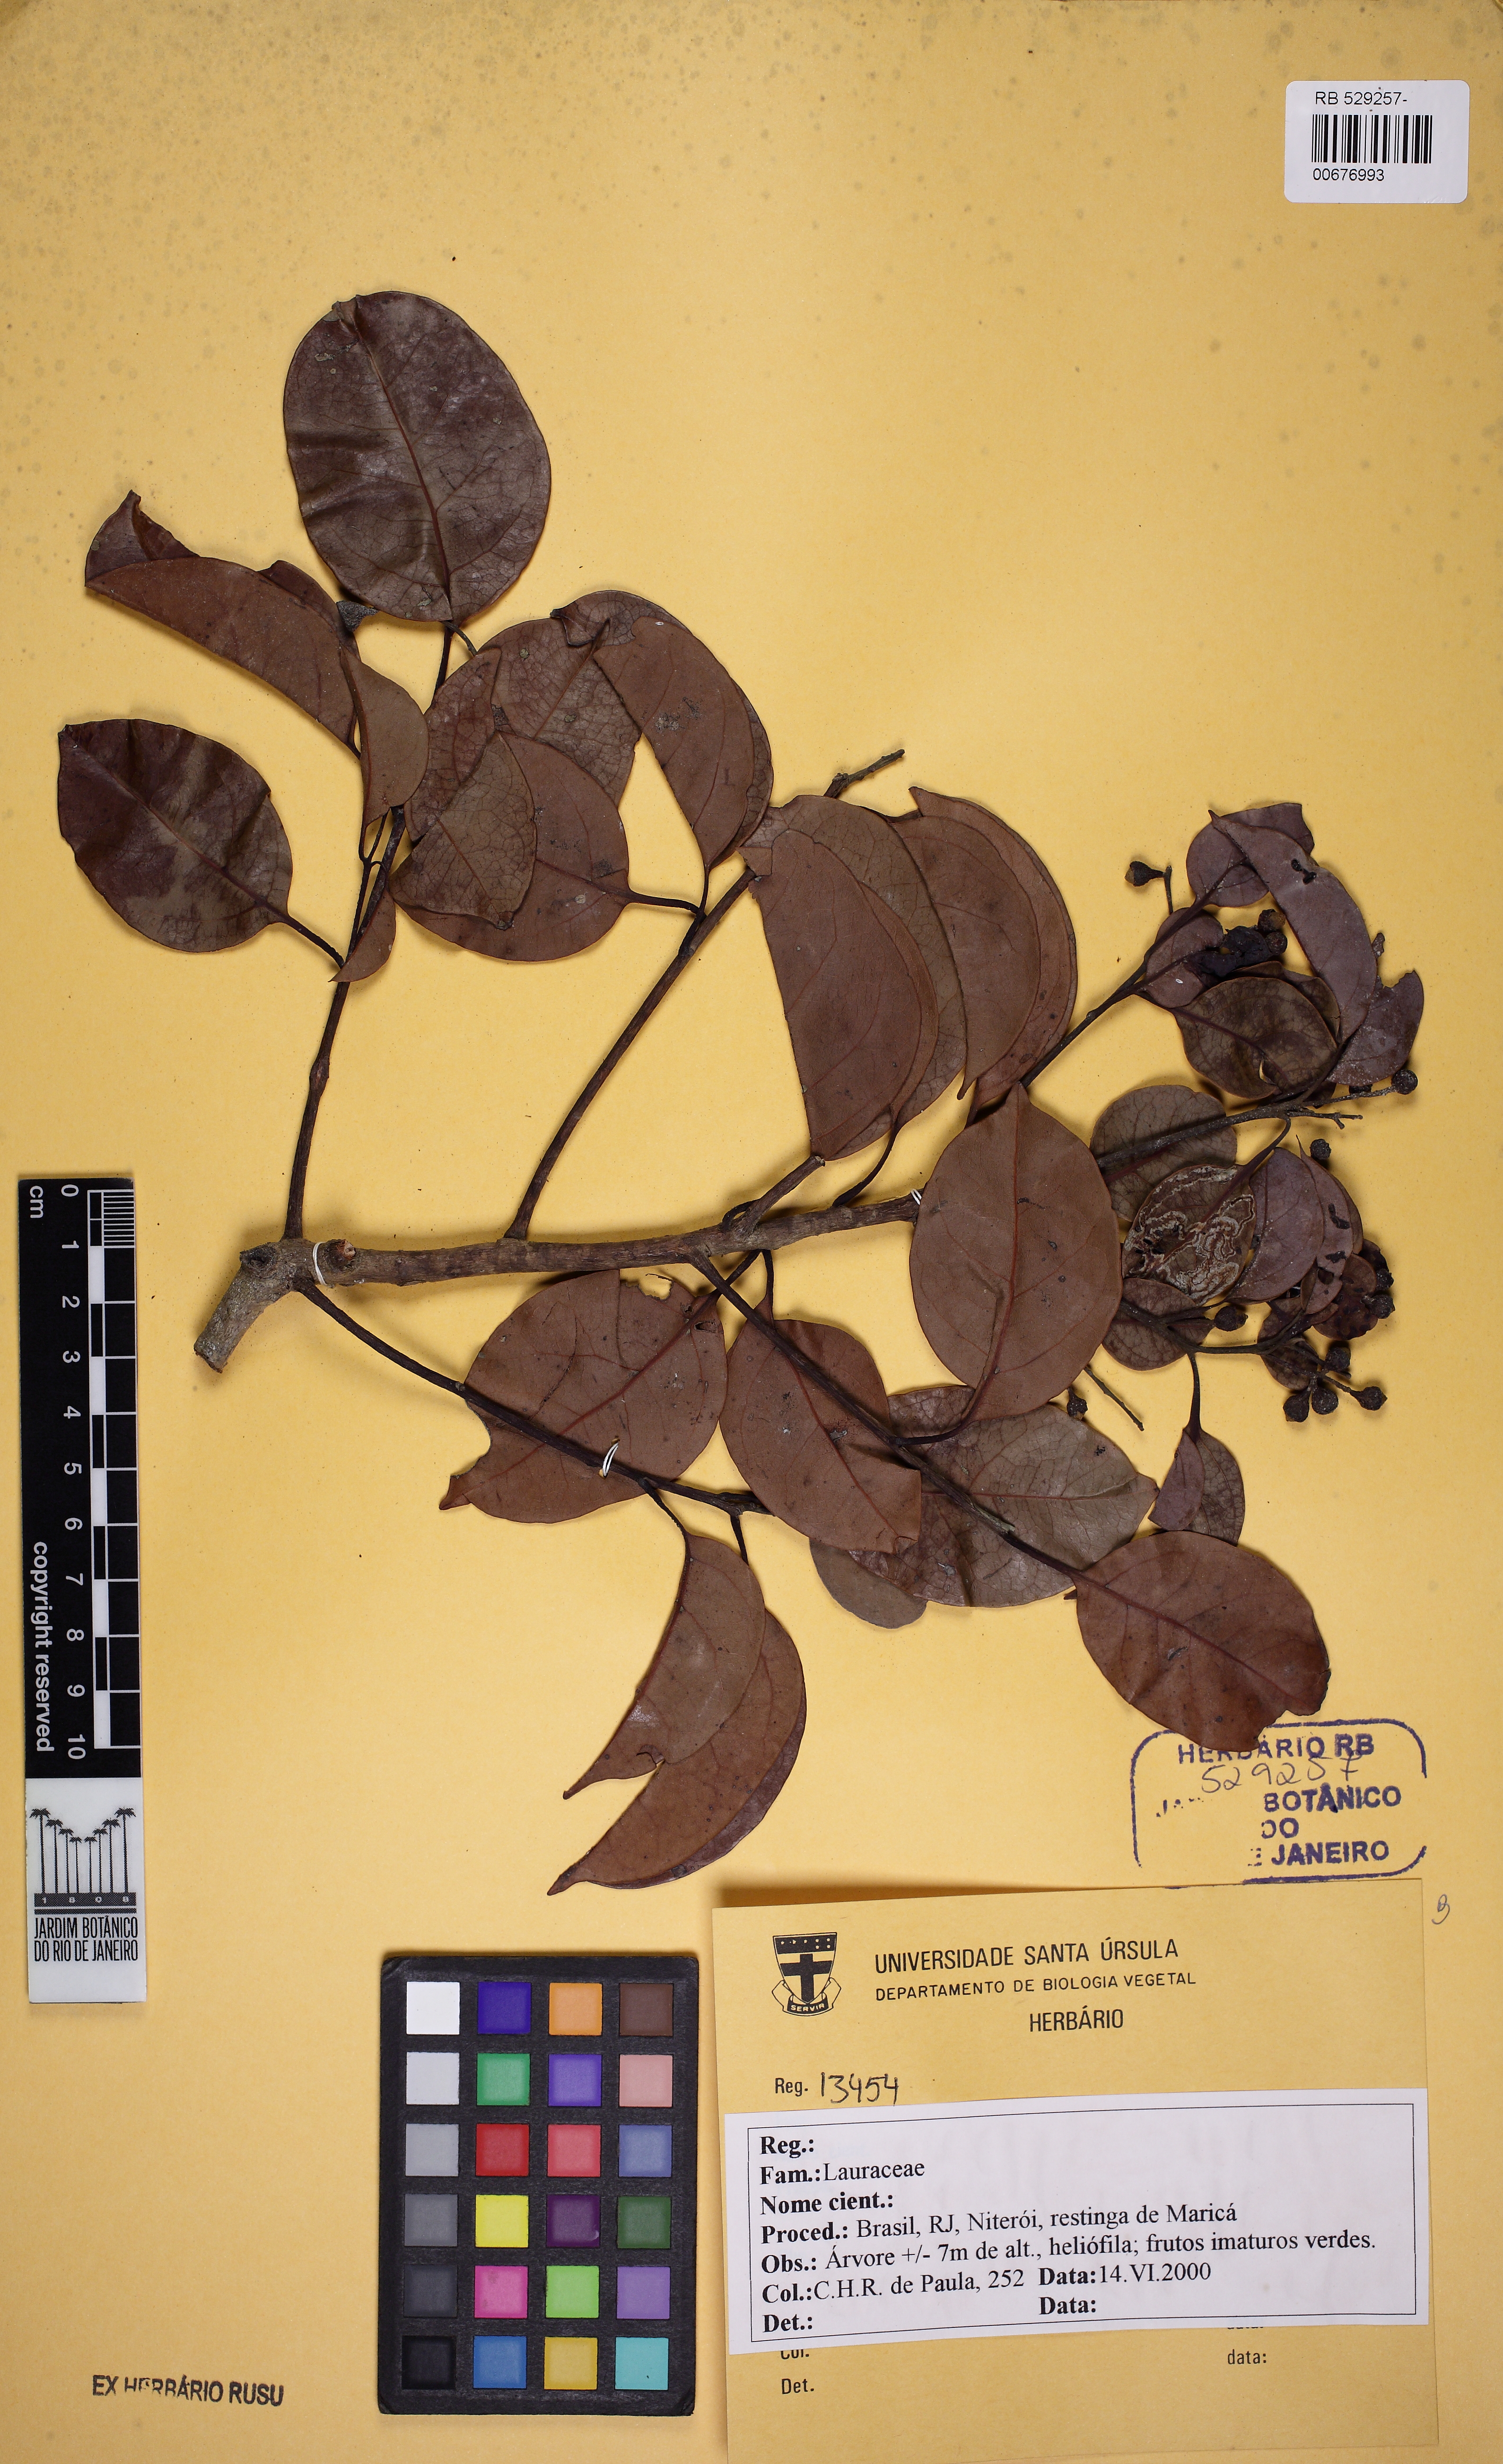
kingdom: Plantae
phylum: Tracheophyta
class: Magnoliopsida
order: Laurales
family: Lauraceae
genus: Mespilodaphne
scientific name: Mespilodaphne notata
